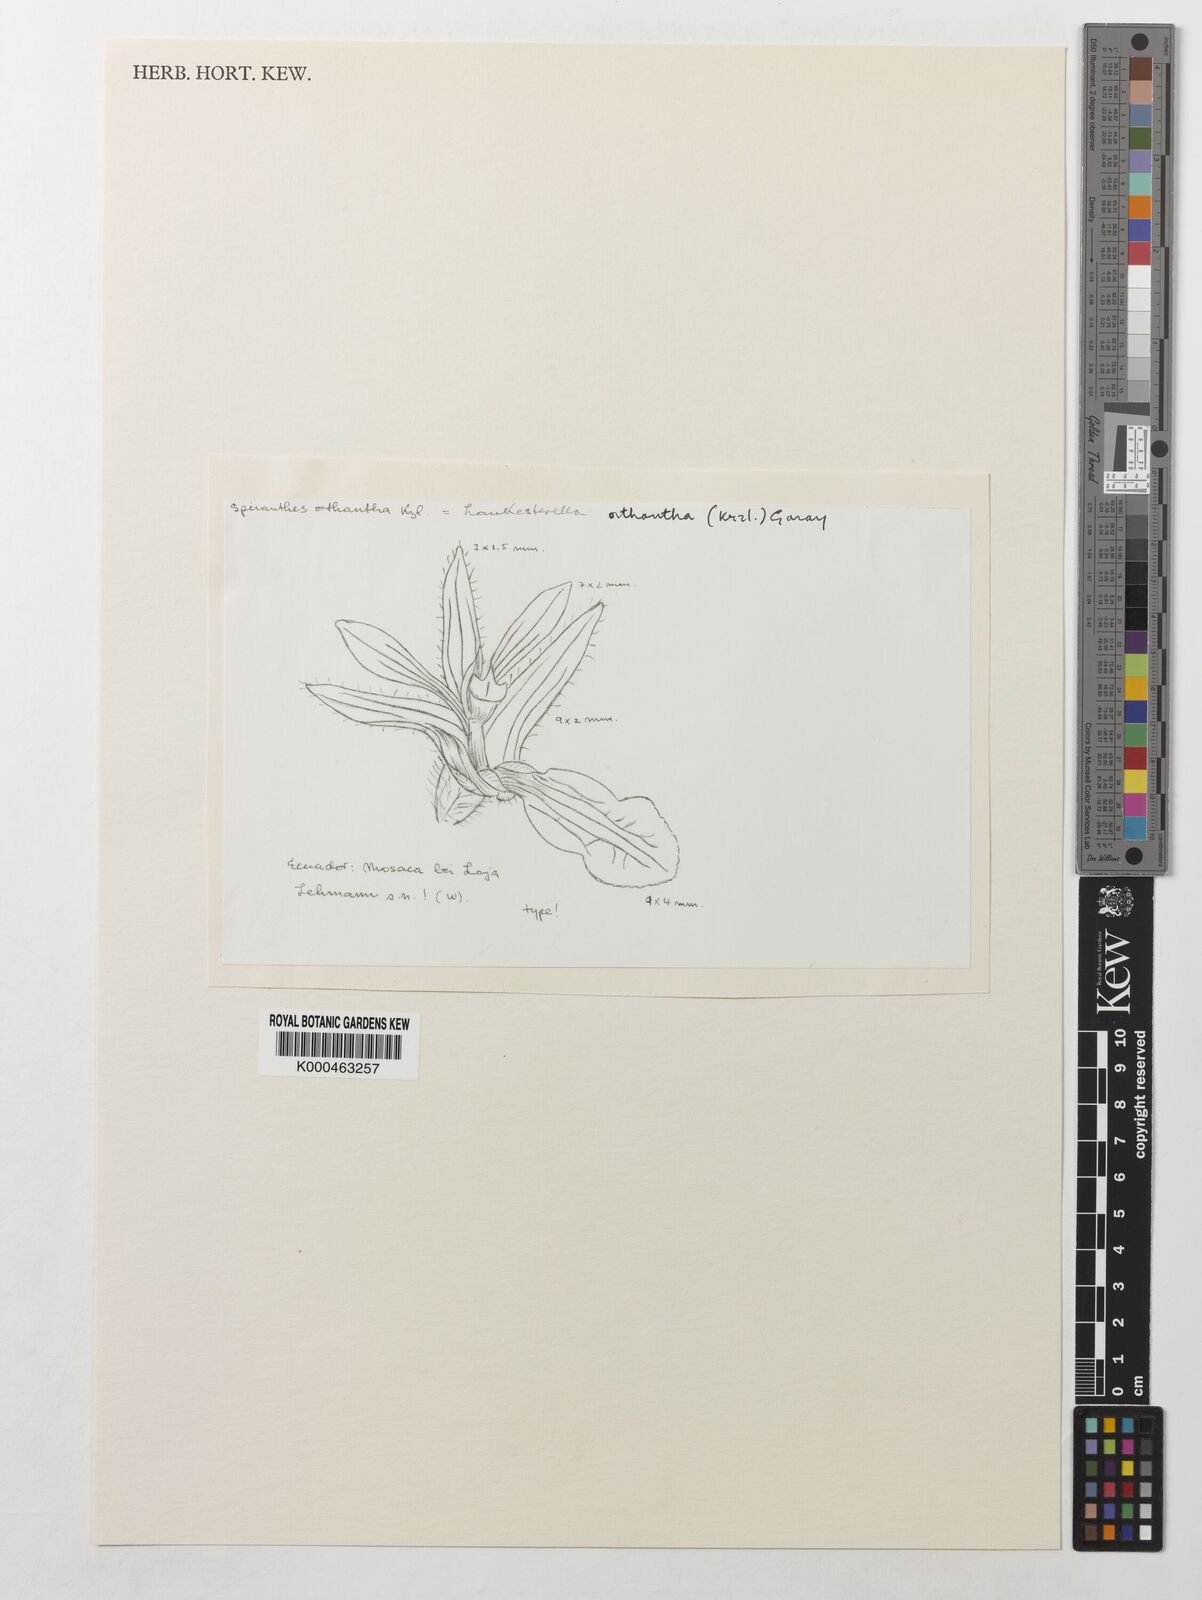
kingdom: Plantae
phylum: Tracheophyta
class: Liliopsida
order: Asparagales
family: Orchidaceae
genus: Lankesterella
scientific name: Lankesterella orthantha
